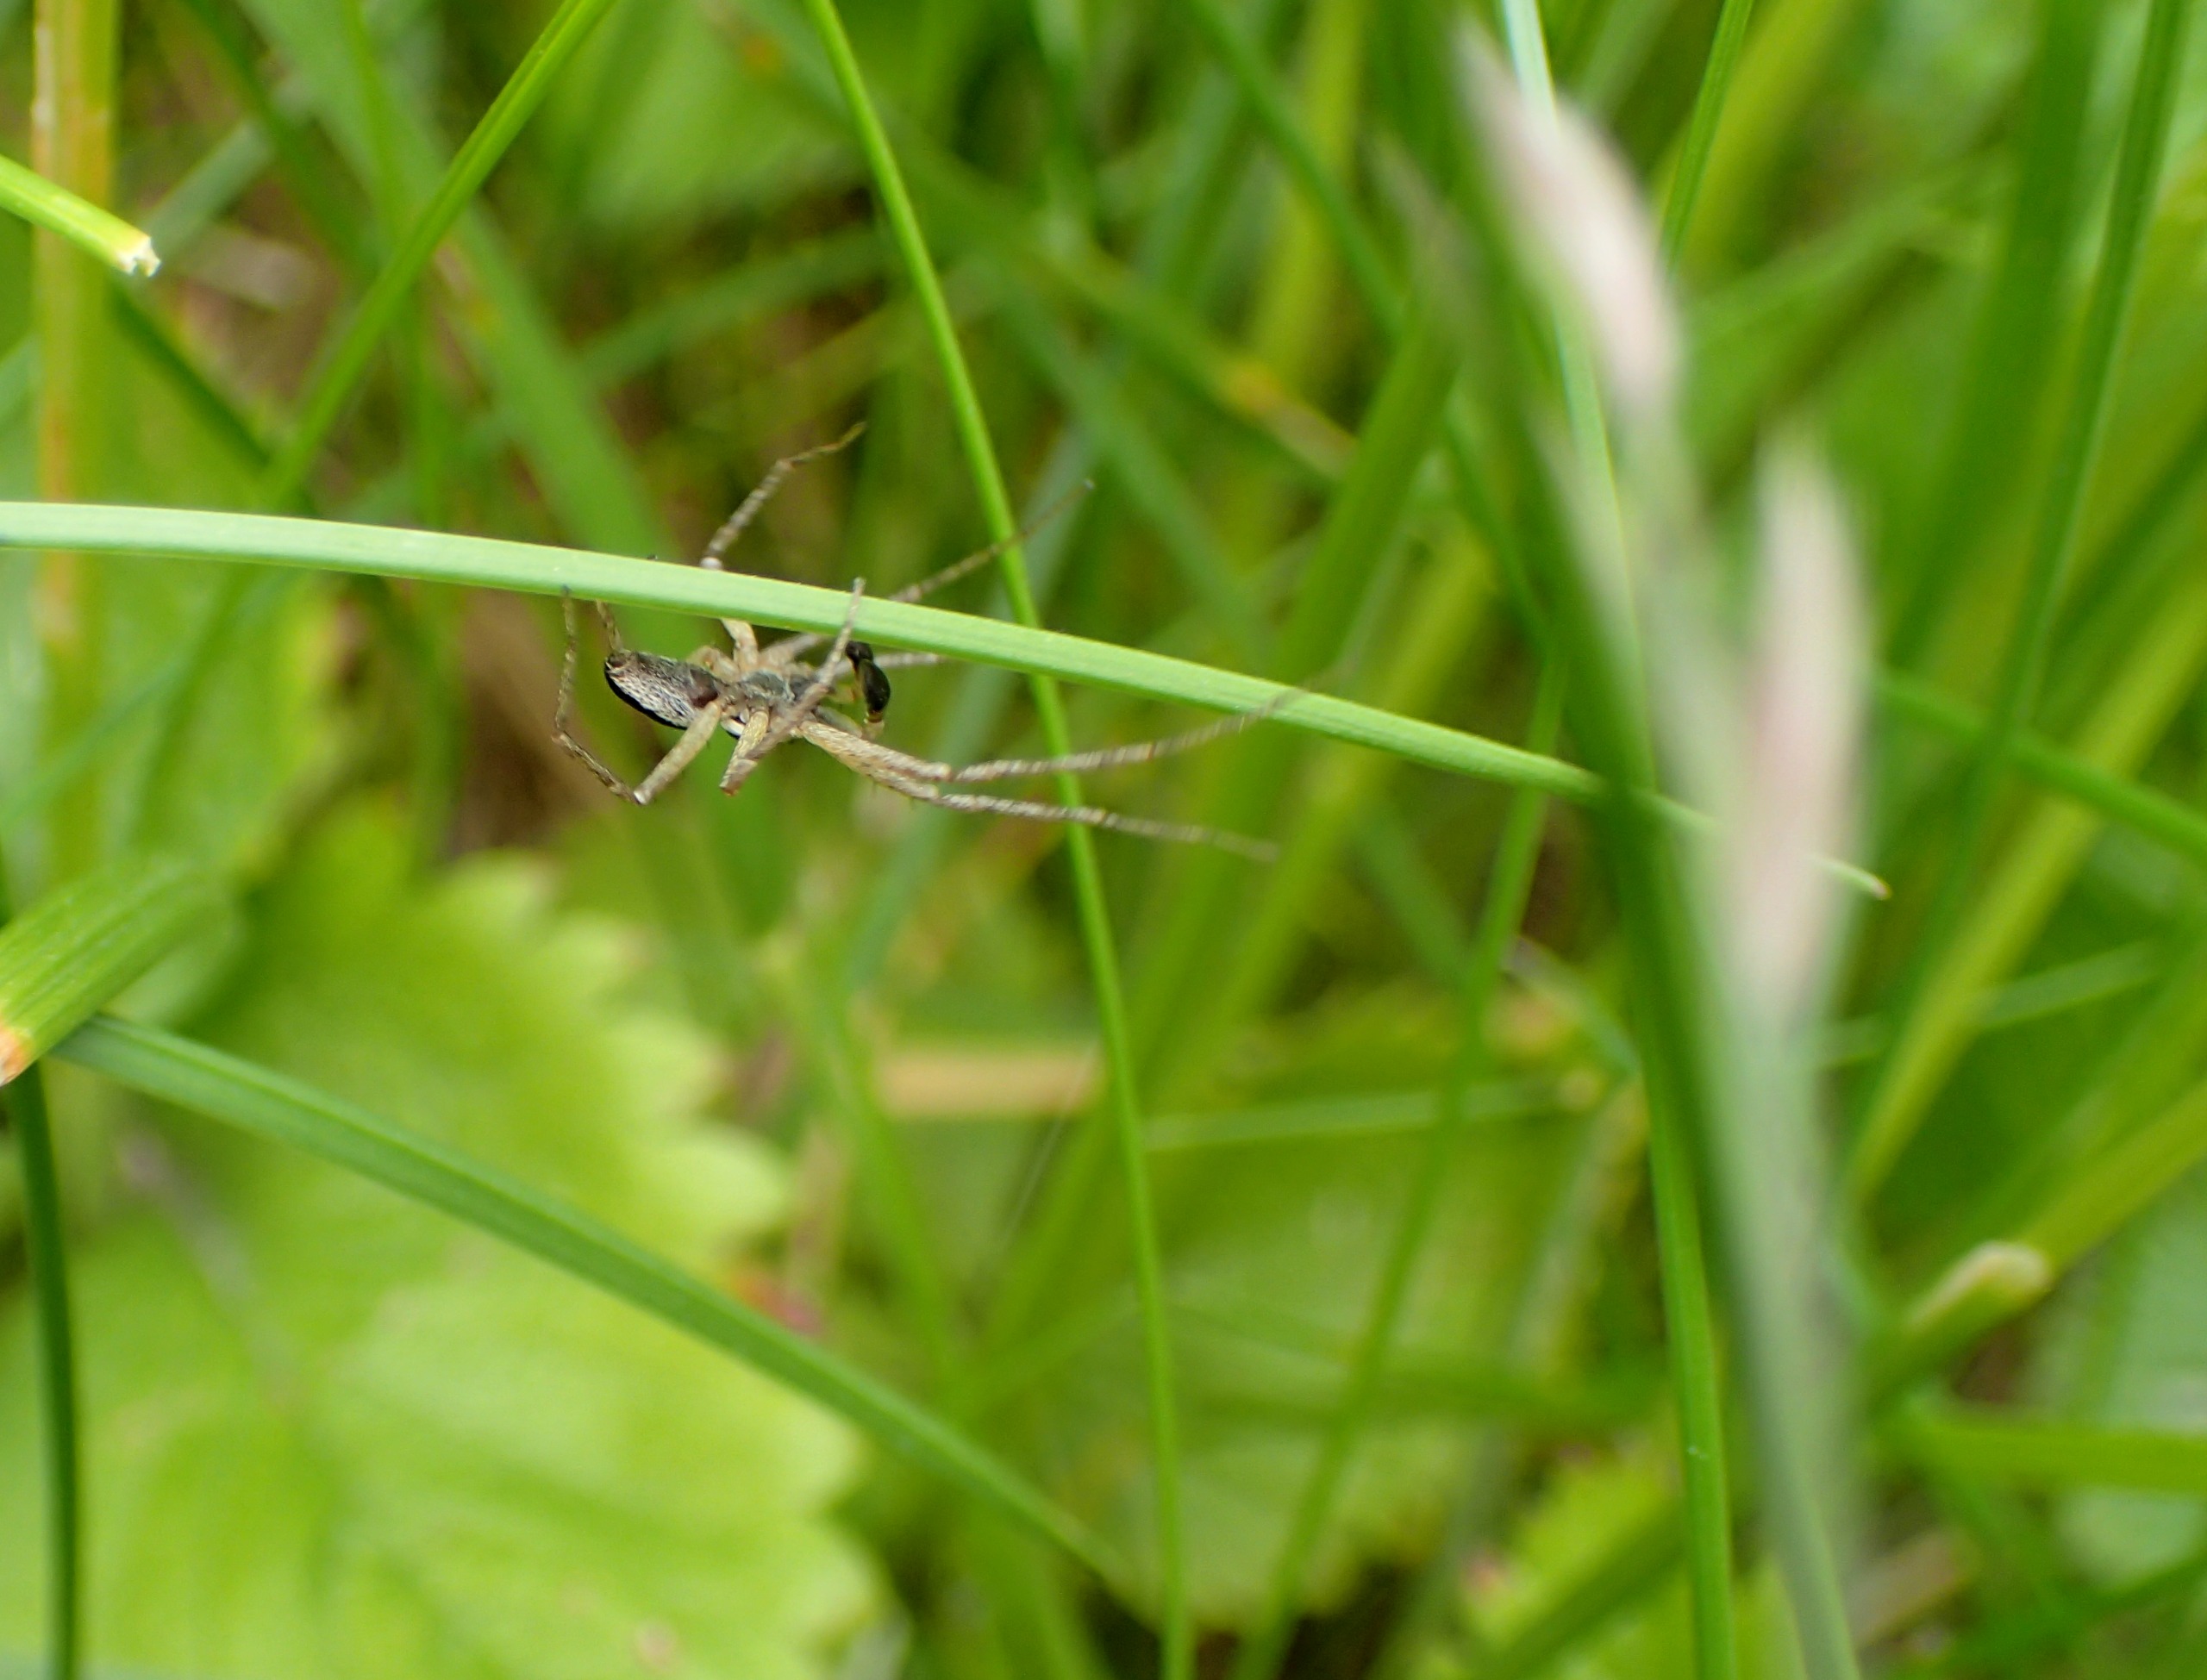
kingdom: Animalia
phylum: Arthropoda
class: Arachnida
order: Araneae
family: Philodromidae
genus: Philodromus
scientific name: Philodromus dispar
